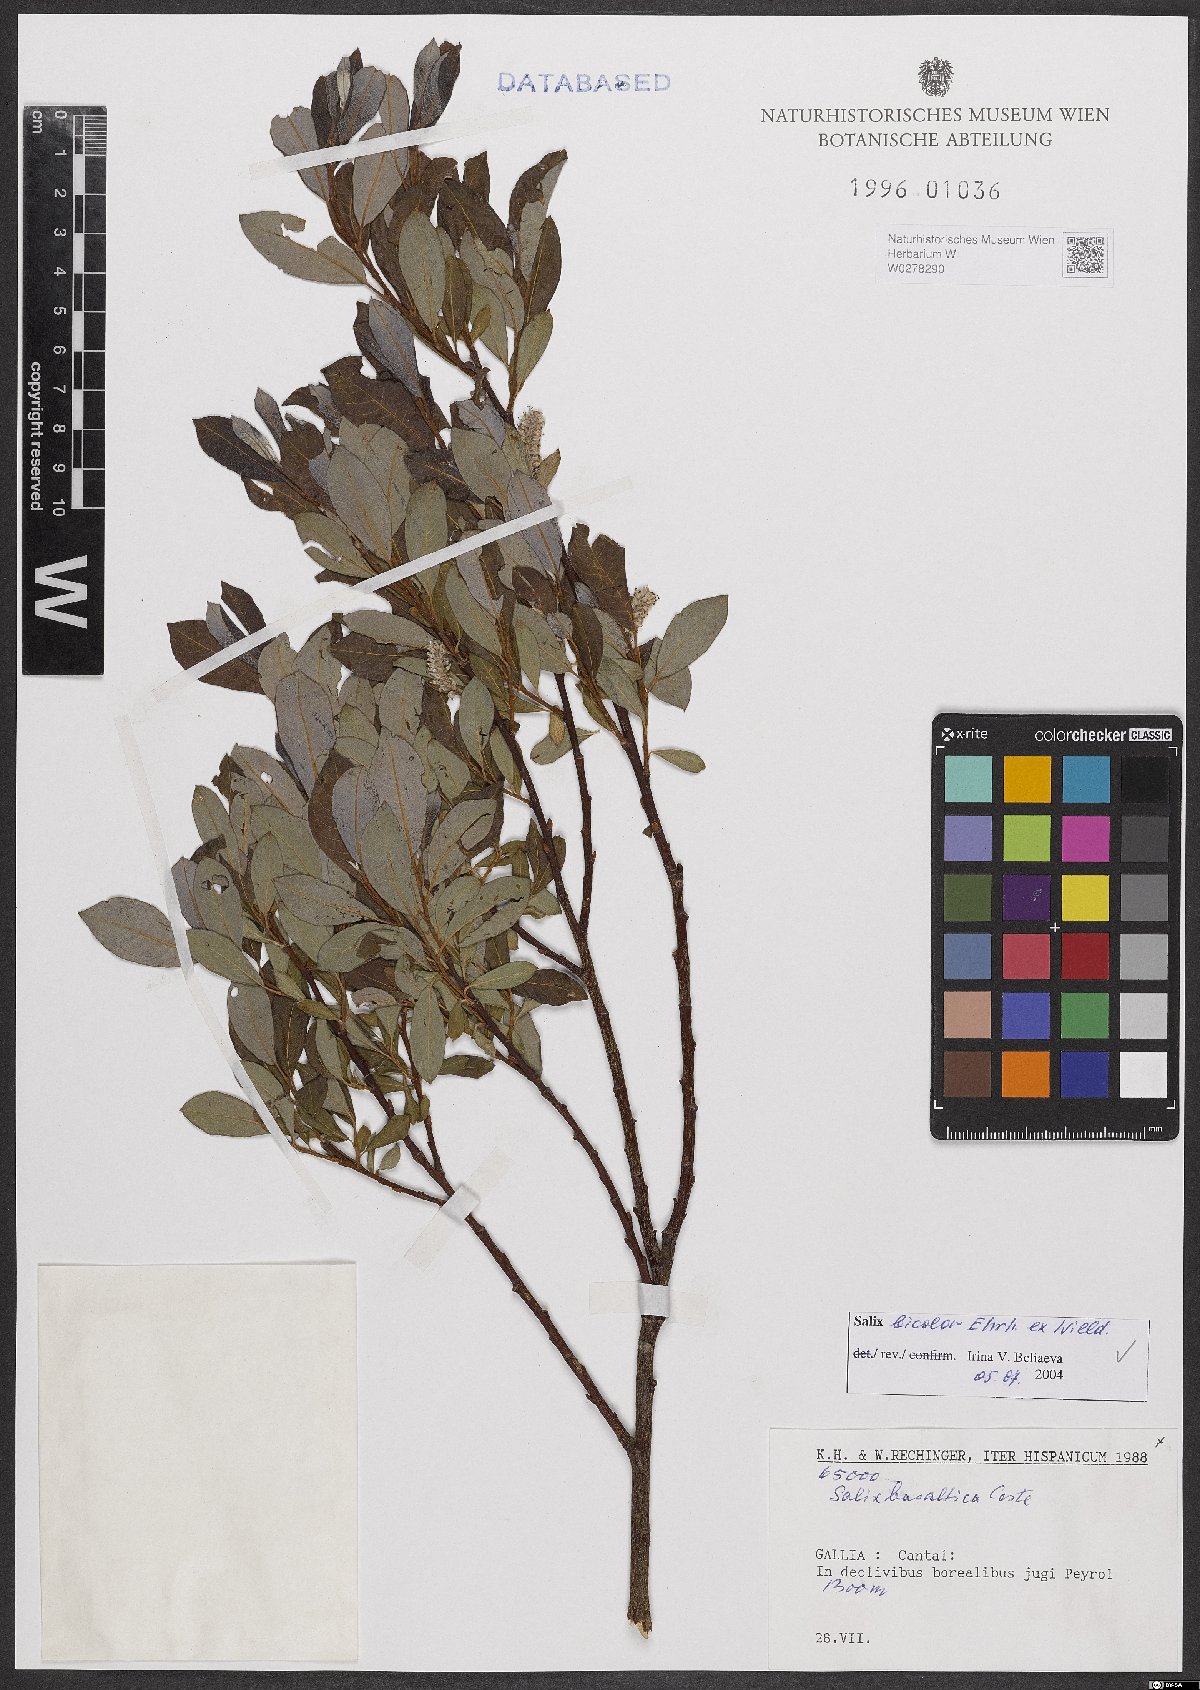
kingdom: Plantae
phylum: Tracheophyta
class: Magnoliopsida
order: Malpighiales
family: Salicaceae
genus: Salix
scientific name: Salix bicolor
